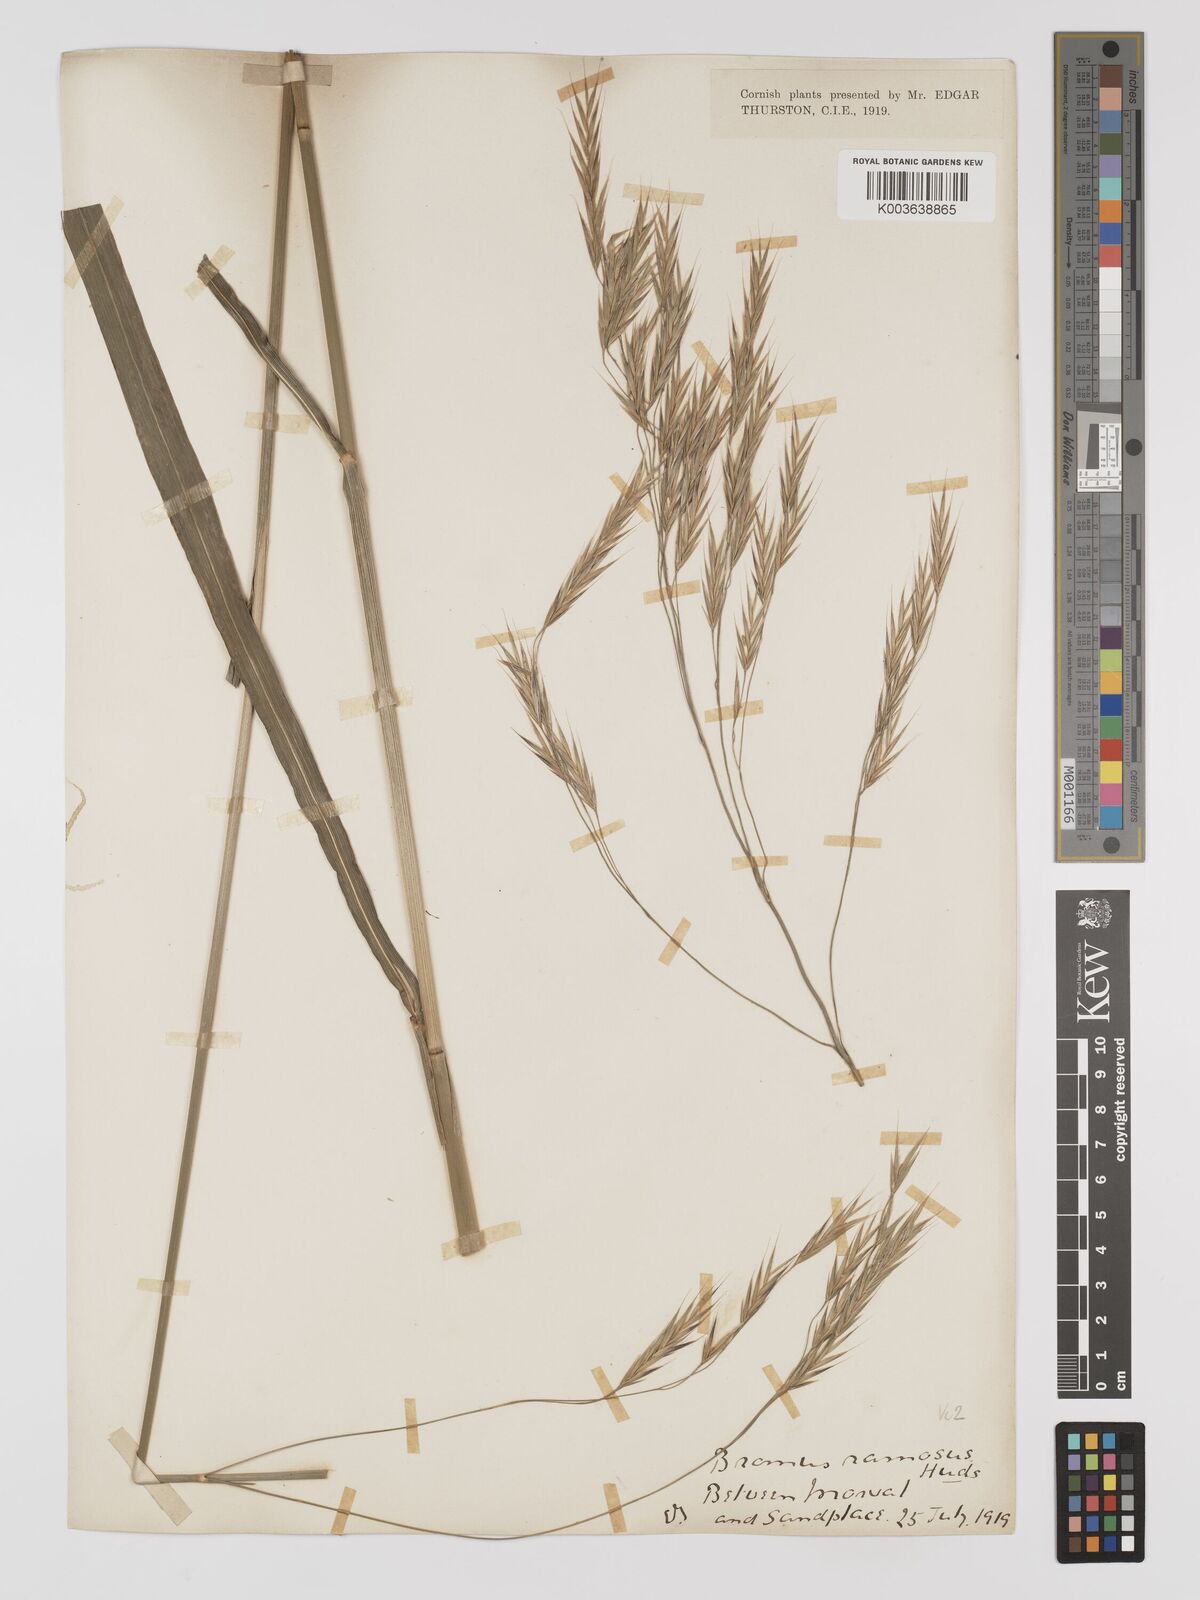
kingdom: Plantae
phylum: Tracheophyta
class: Liliopsida
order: Poales
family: Poaceae
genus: Brachypodium
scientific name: Brachypodium retusum
